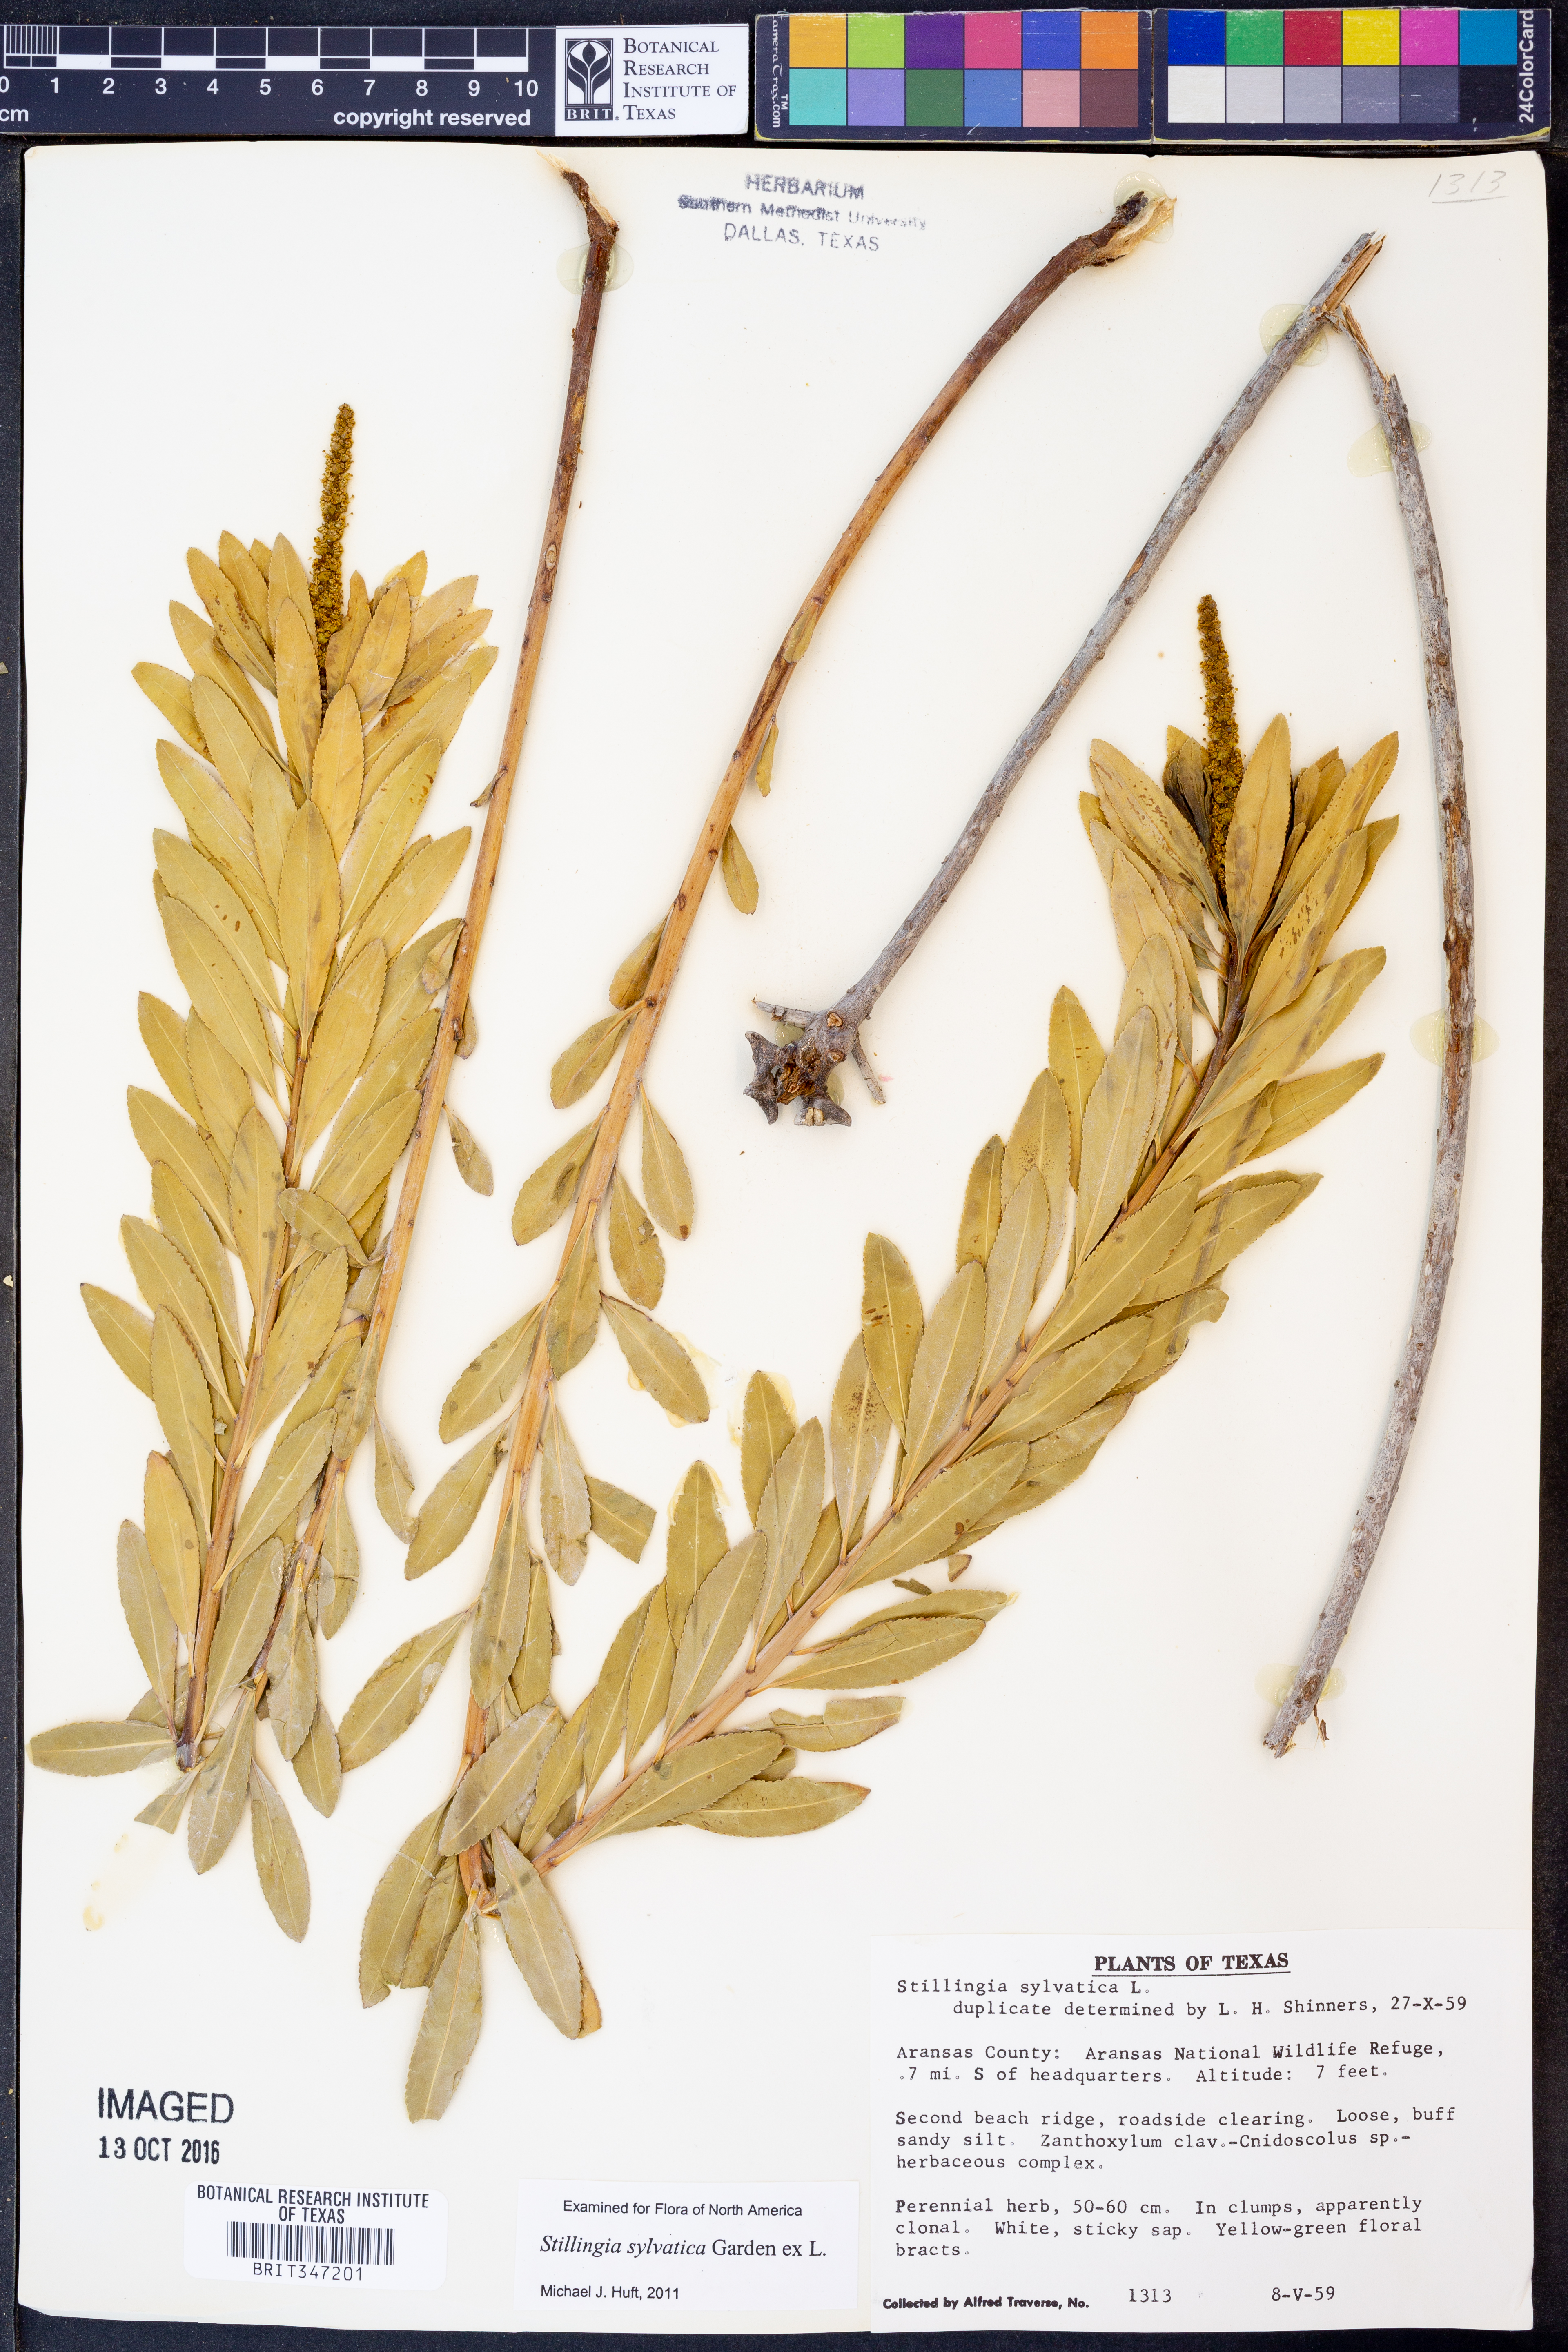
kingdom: Plantae
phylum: Tracheophyta
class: Magnoliopsida
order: Malpighiales
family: Euphorbiaceae
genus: Stillingia
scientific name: Stillingia sylvatica
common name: Queen's-delight
